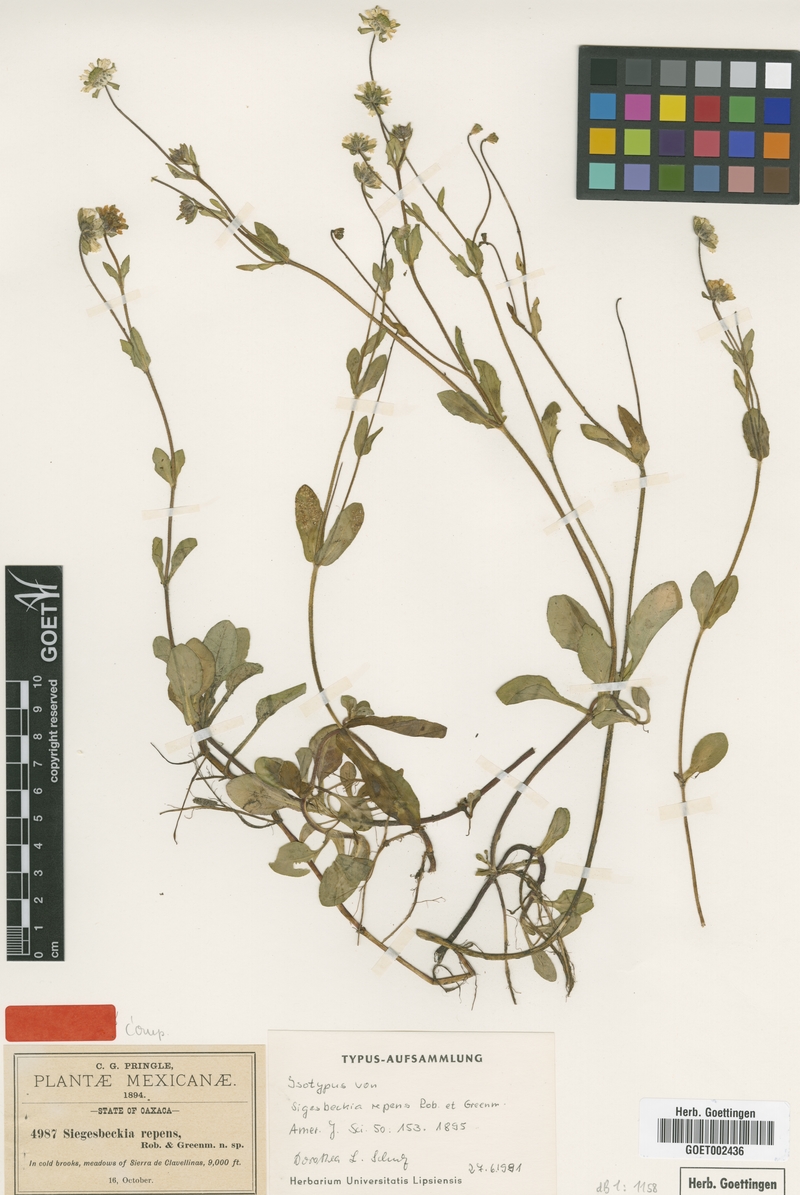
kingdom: Plantae
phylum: Tracheophyta
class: Magnoliopsida
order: Asterales
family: Asteraceae
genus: Sigesbeckia
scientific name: Sigesbeckia repens
